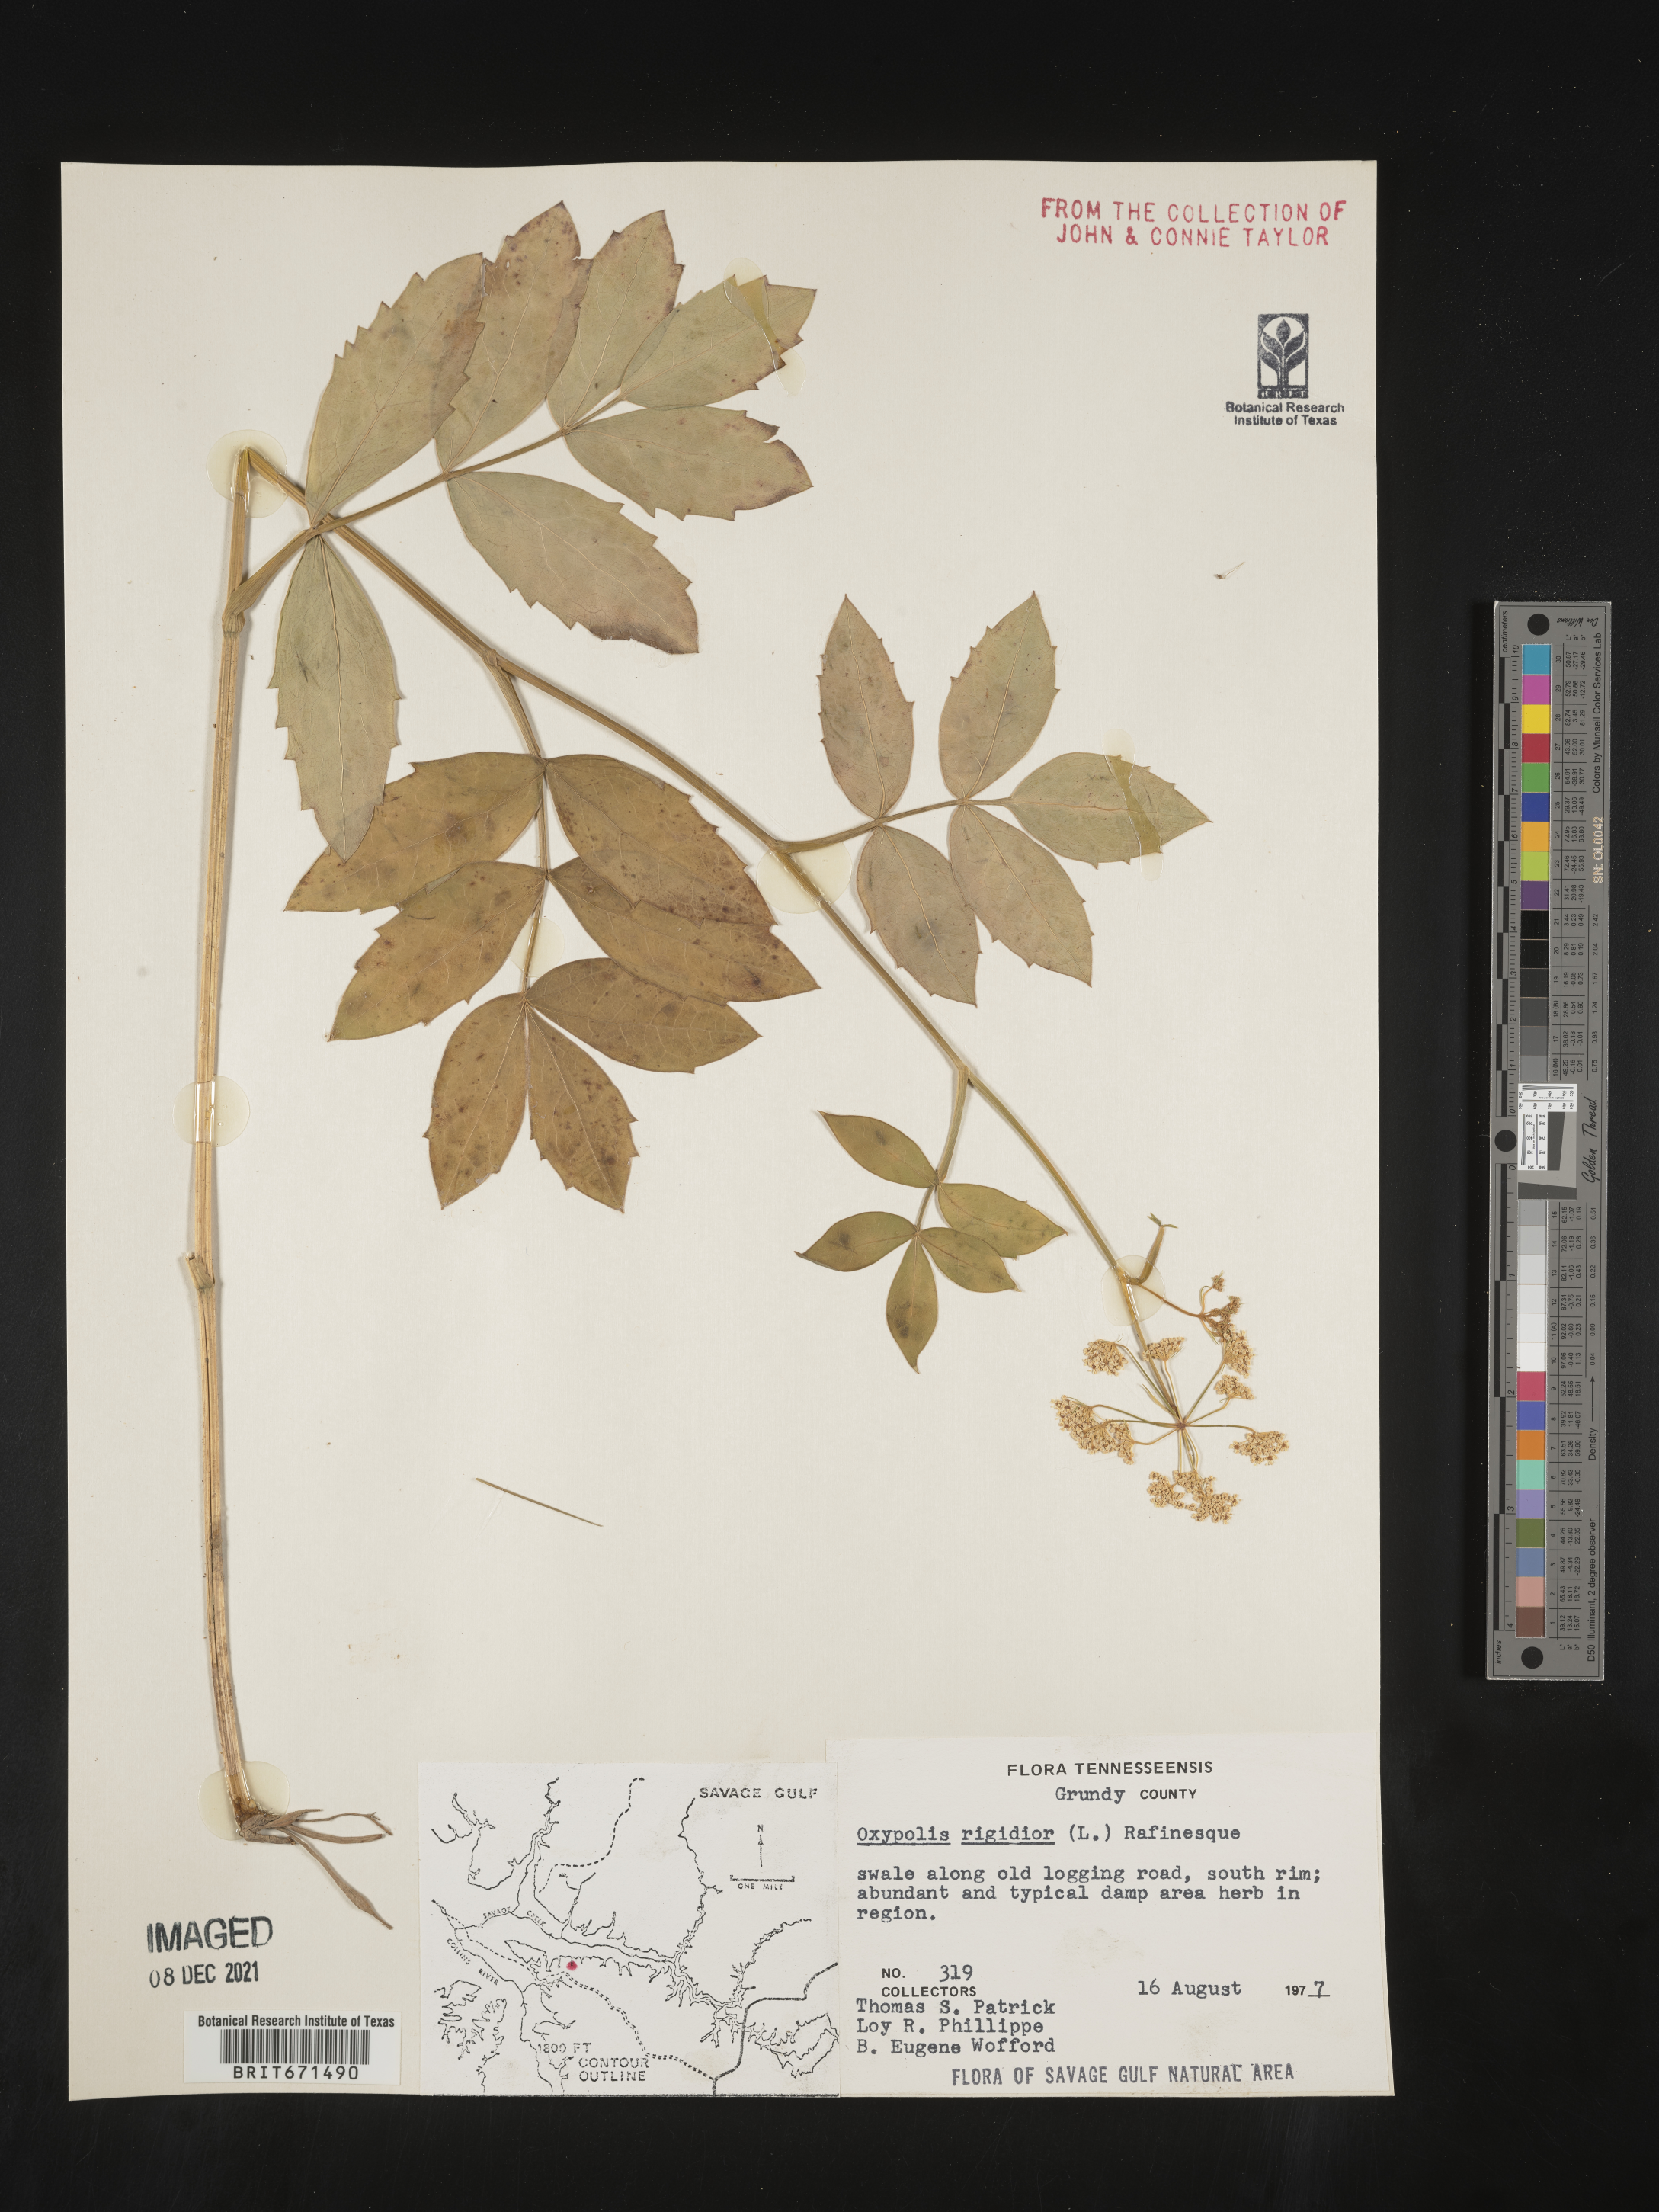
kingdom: Plantae
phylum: Tracheophyta
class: Magnoliopsida
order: Apiales
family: Apiaceae
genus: Oxypolis
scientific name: Oxypolis rigidior
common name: Cowbane
